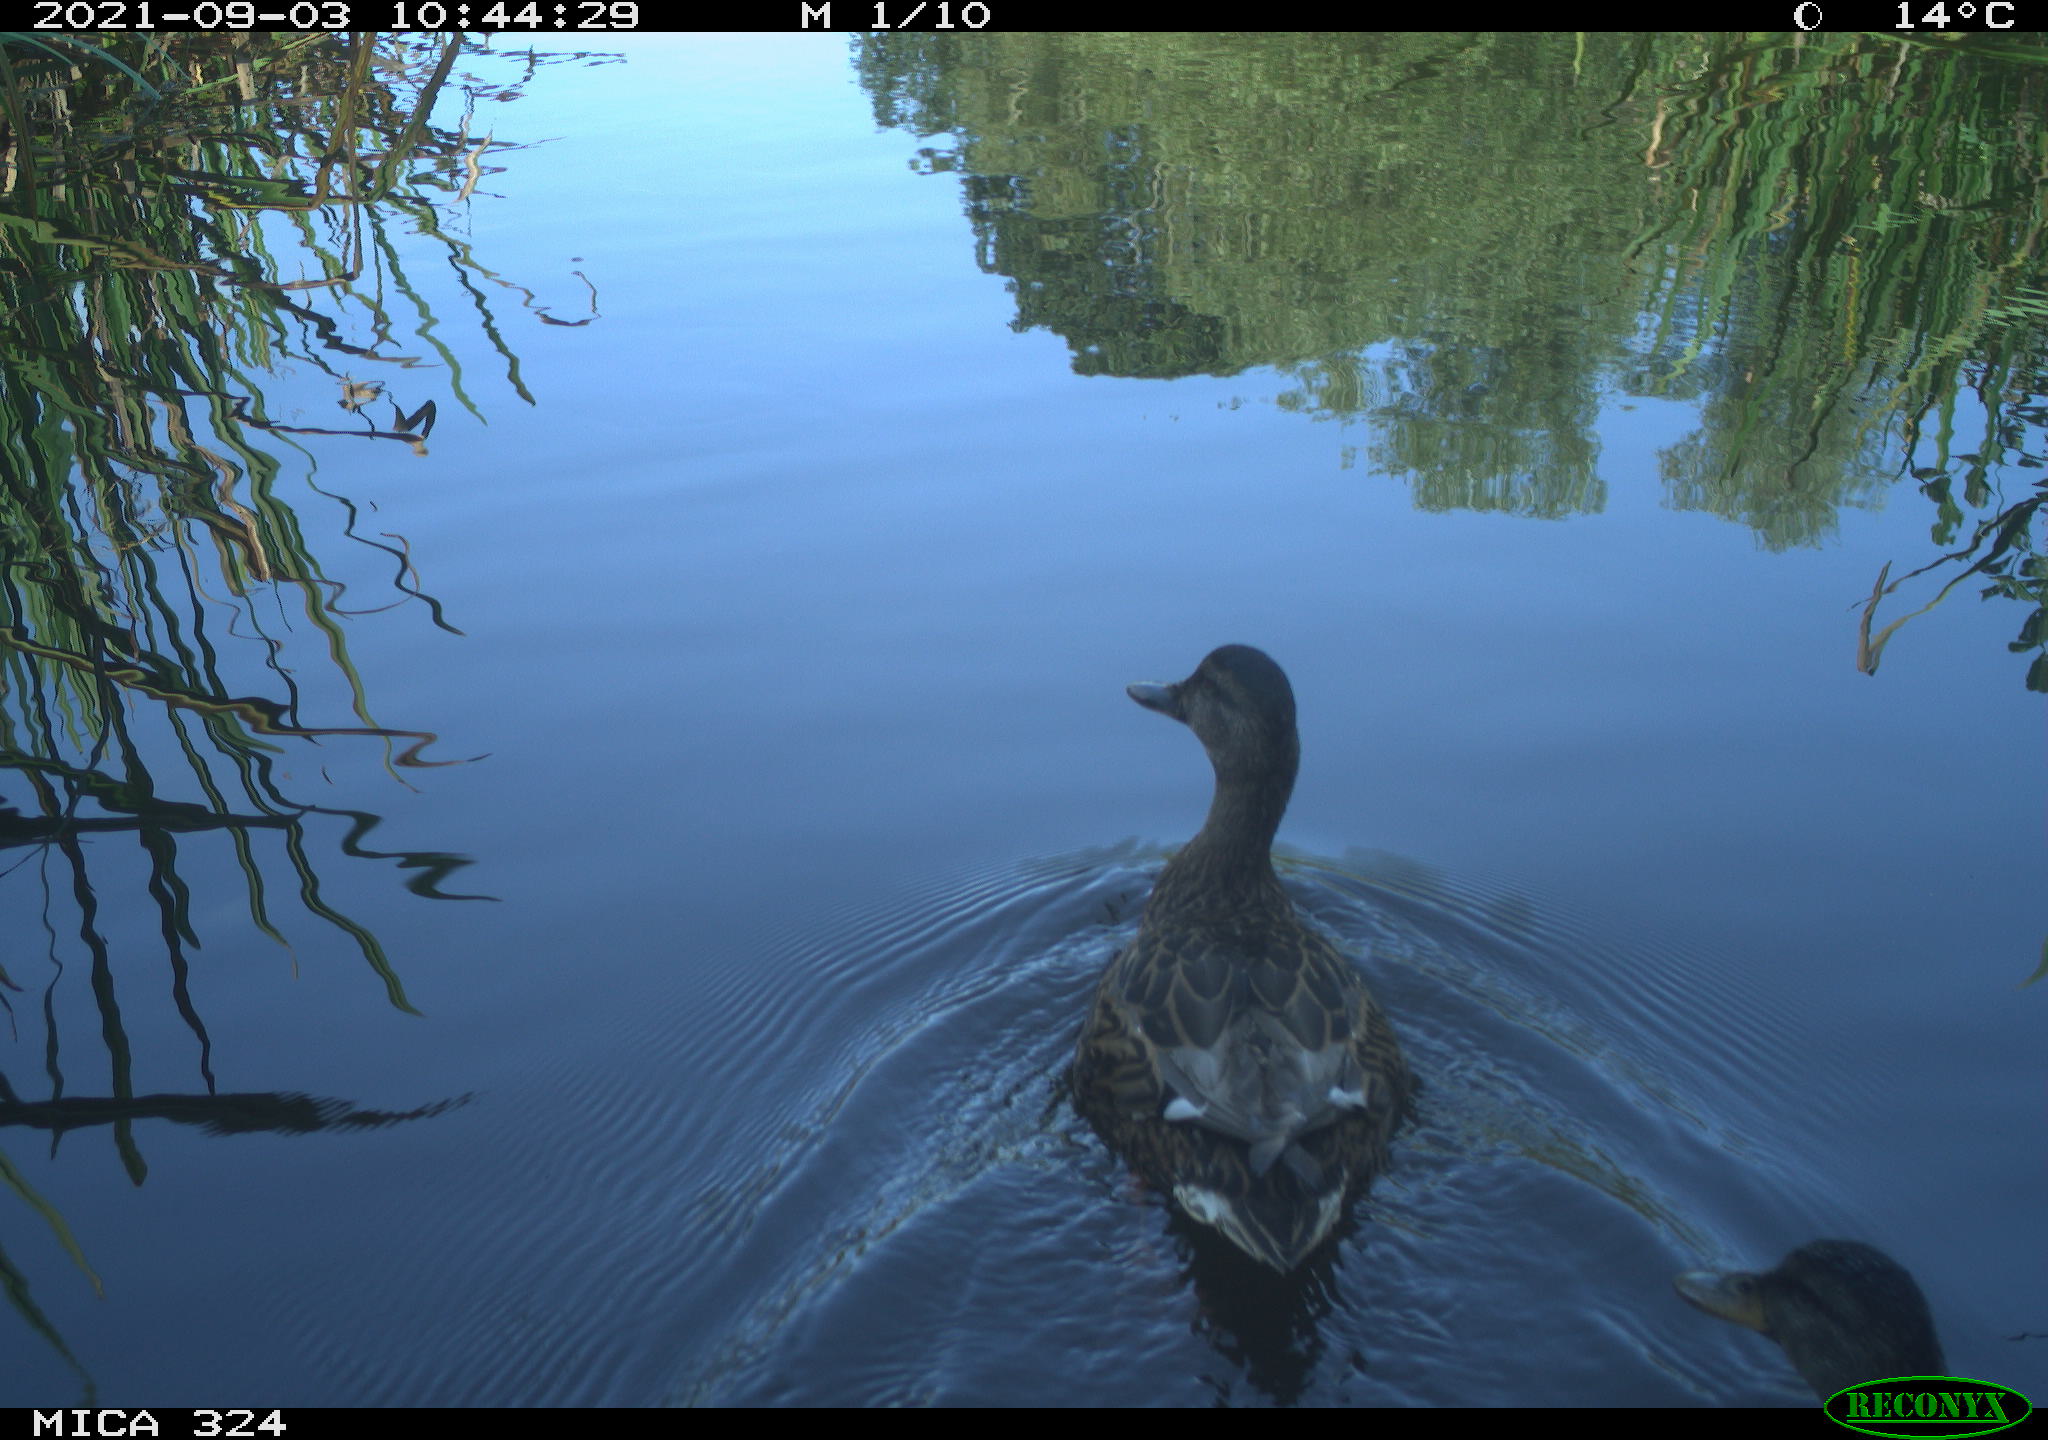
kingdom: Animalia
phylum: Chordata
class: Aves
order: Anseriformes
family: Anatidae
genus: Anas
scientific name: Anas platyrhynchos
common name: Mallard
